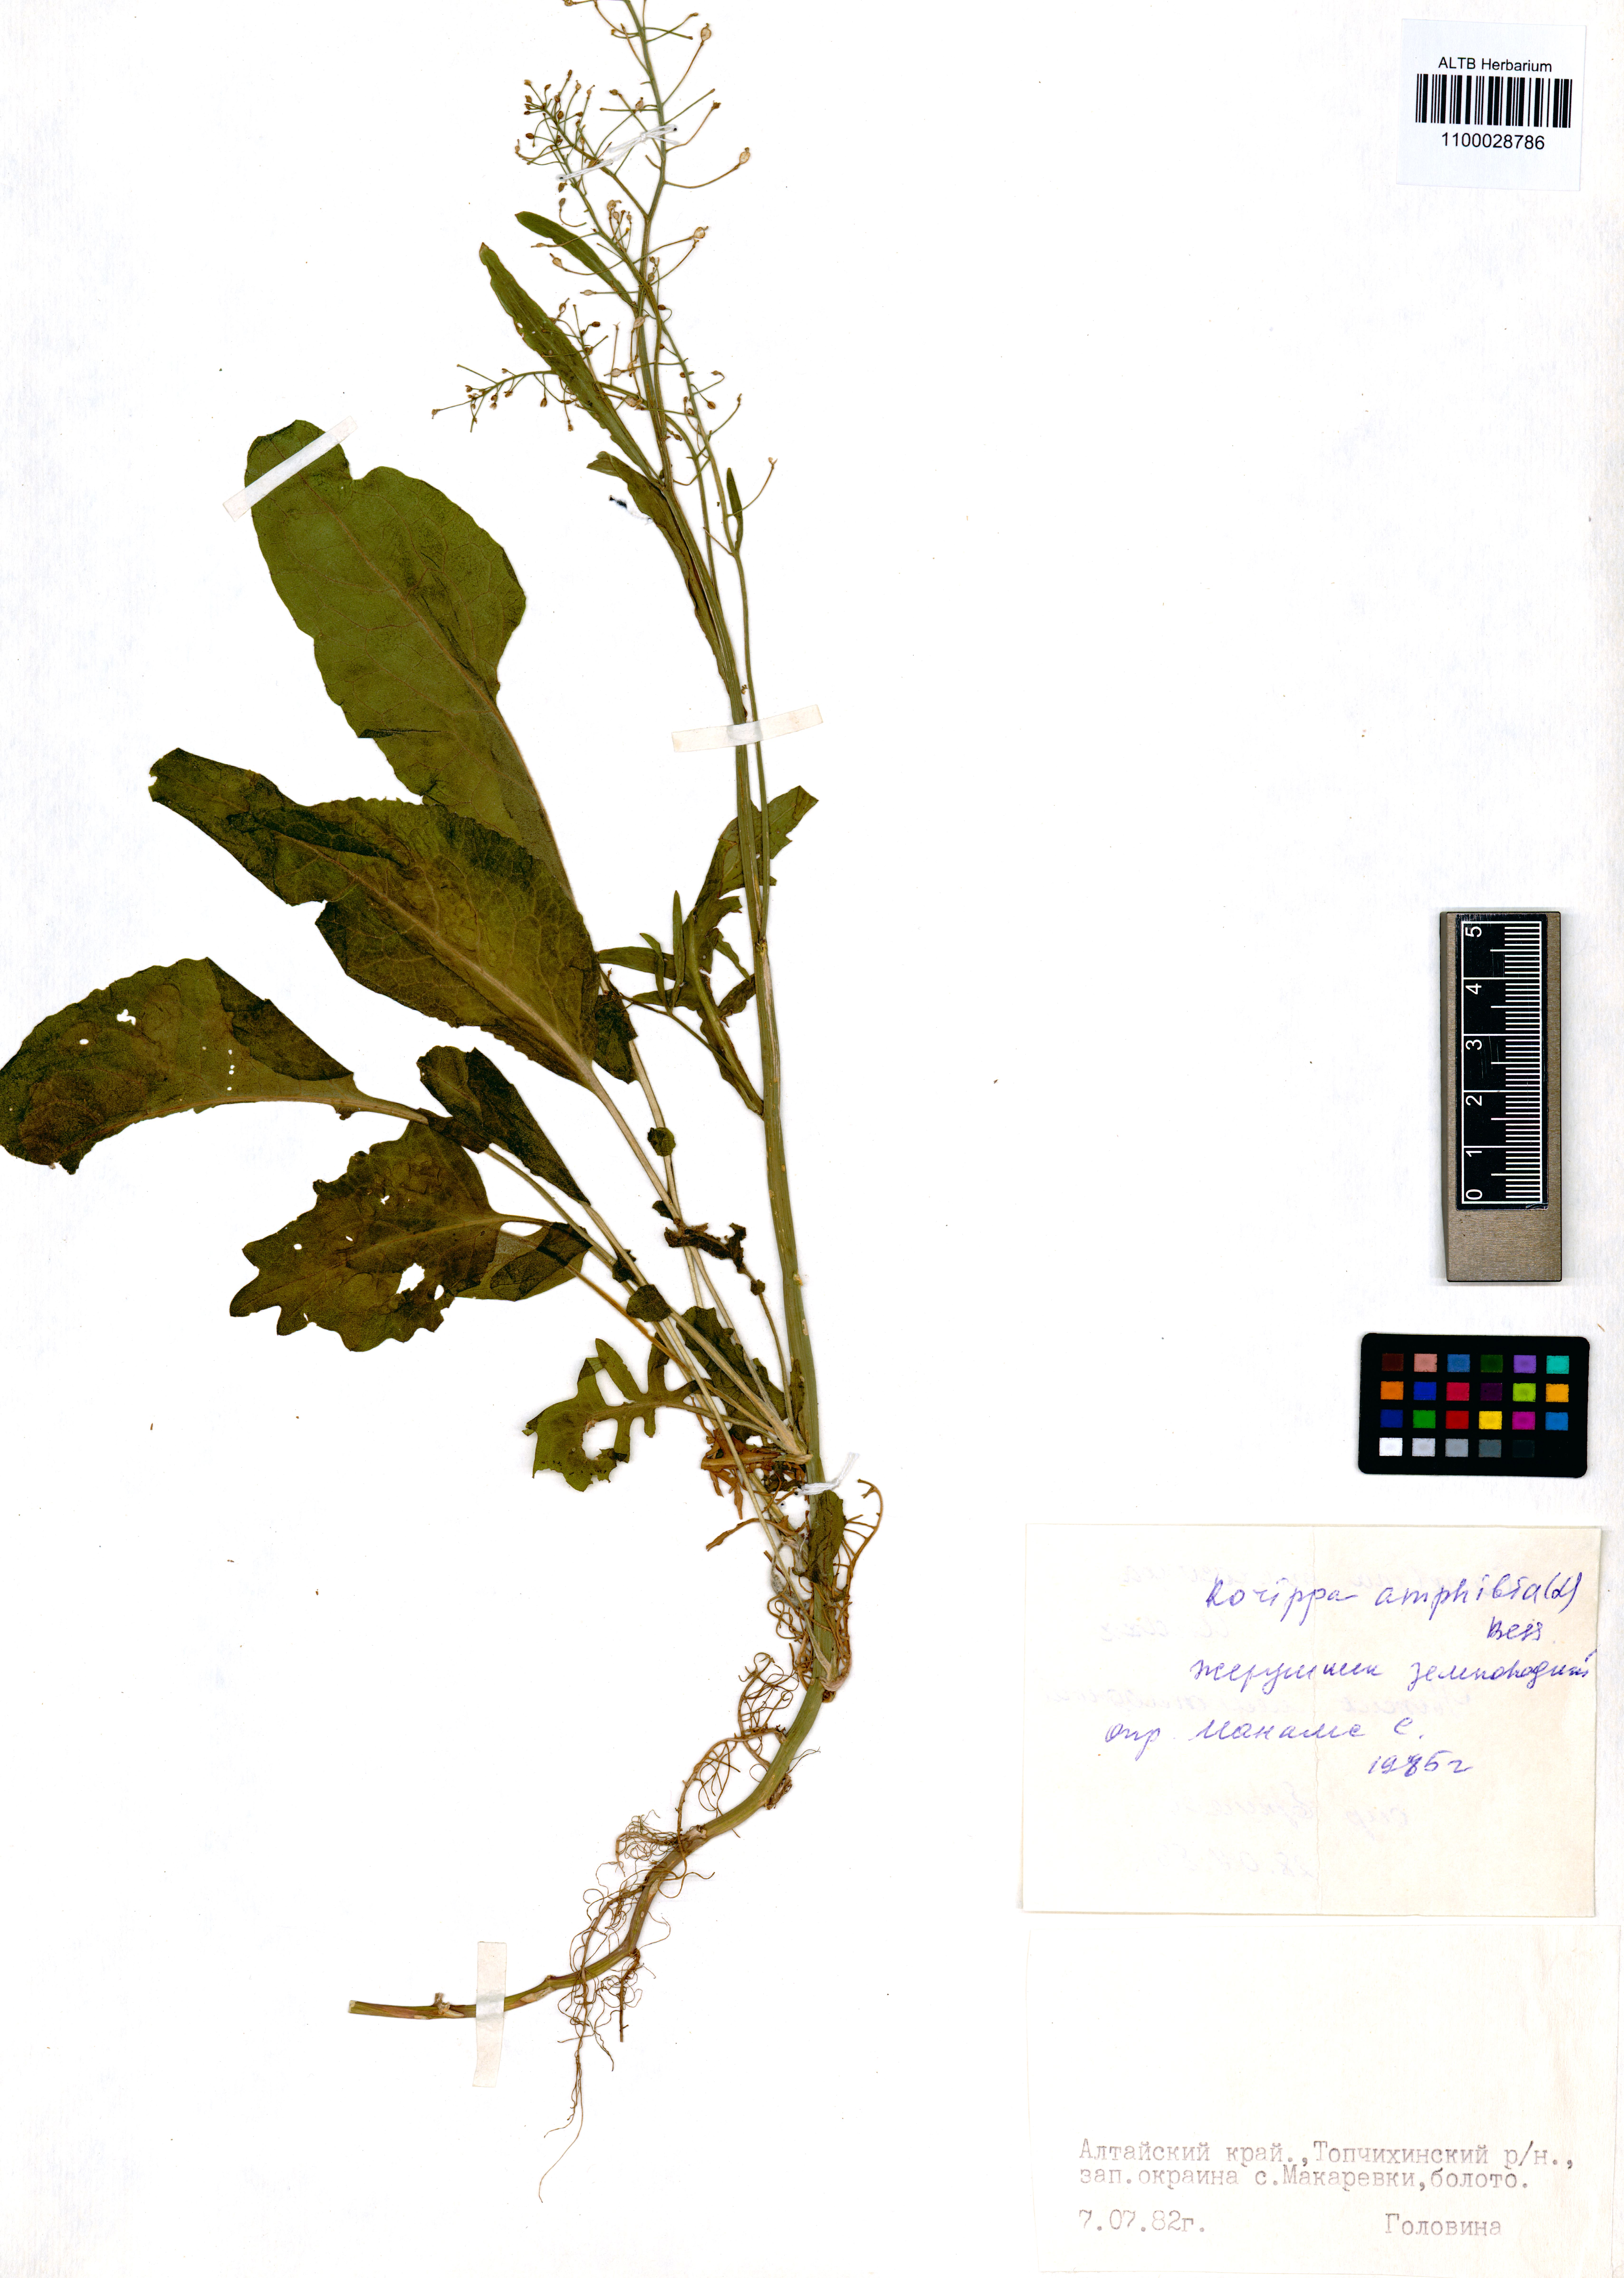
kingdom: Plantae
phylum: Tracheophyta
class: Magnoliopsida
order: Brassicales
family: Brassicaceae
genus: Rorippa
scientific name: Rorippa amphibia
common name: Great yellow-cress
